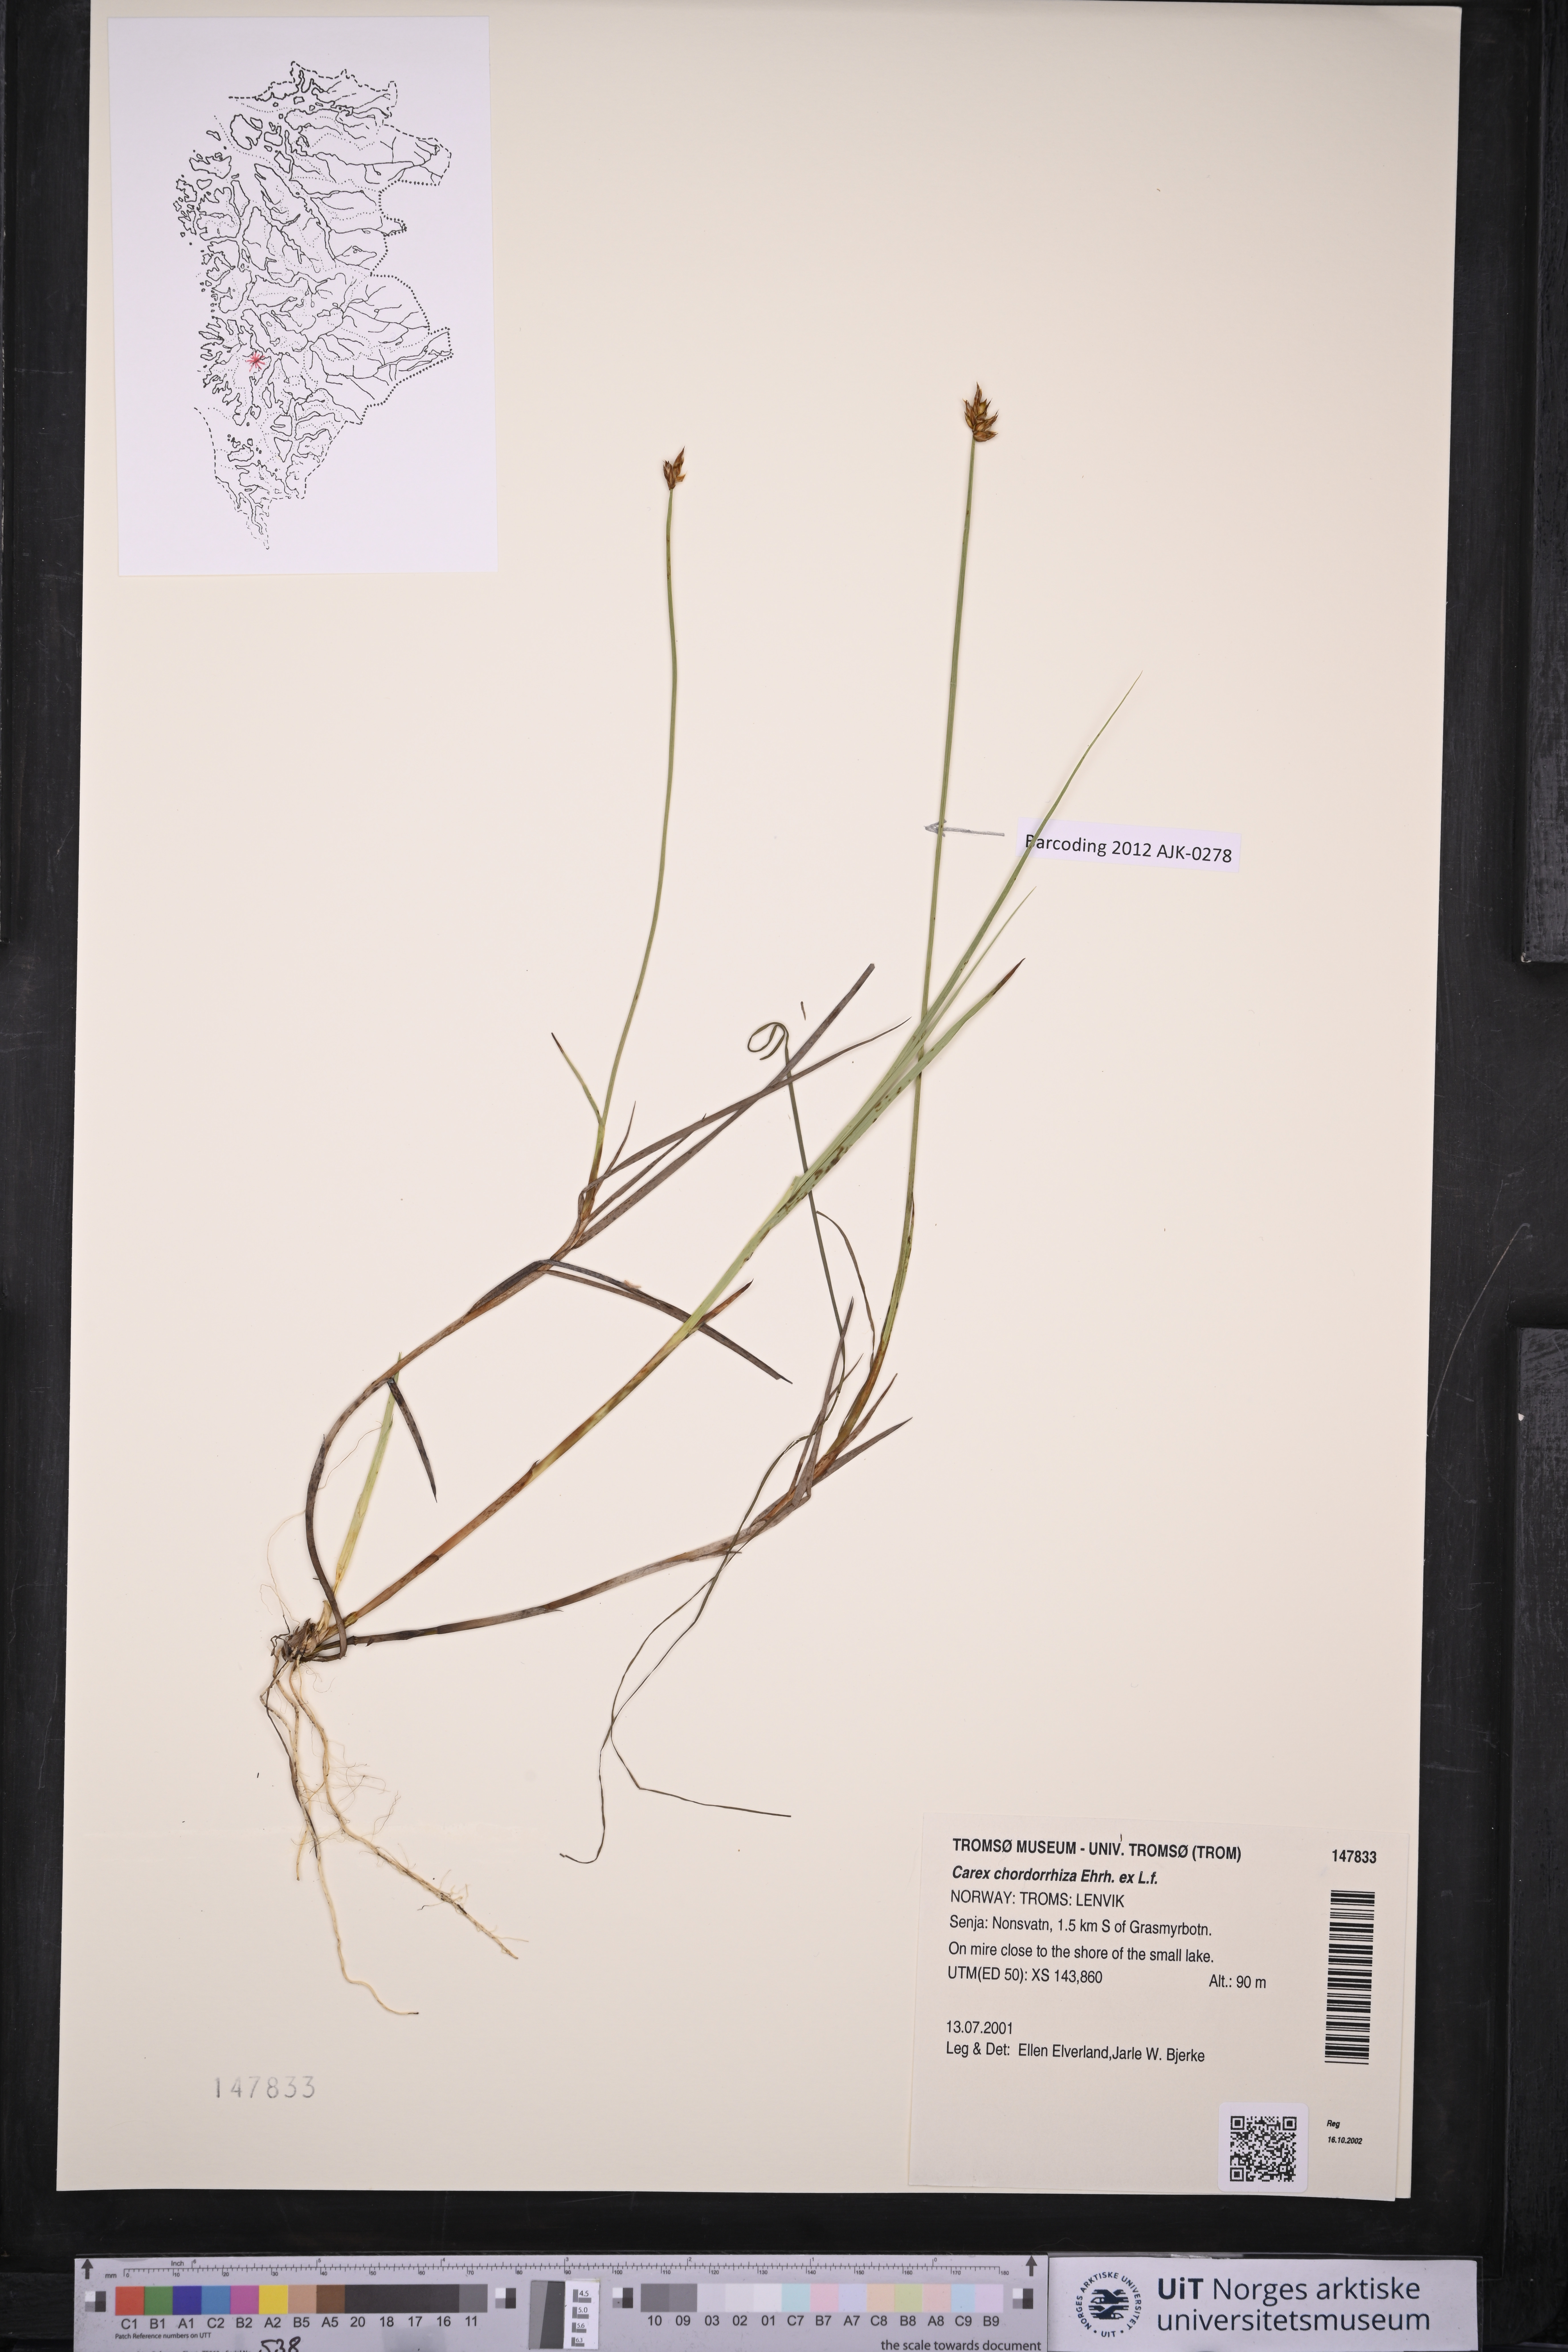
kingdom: Plantae
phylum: Tracheophyta
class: Liliopsida
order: Poales
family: Cyperaceae
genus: Carex
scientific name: Carex chordorrhiza
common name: String sedge
